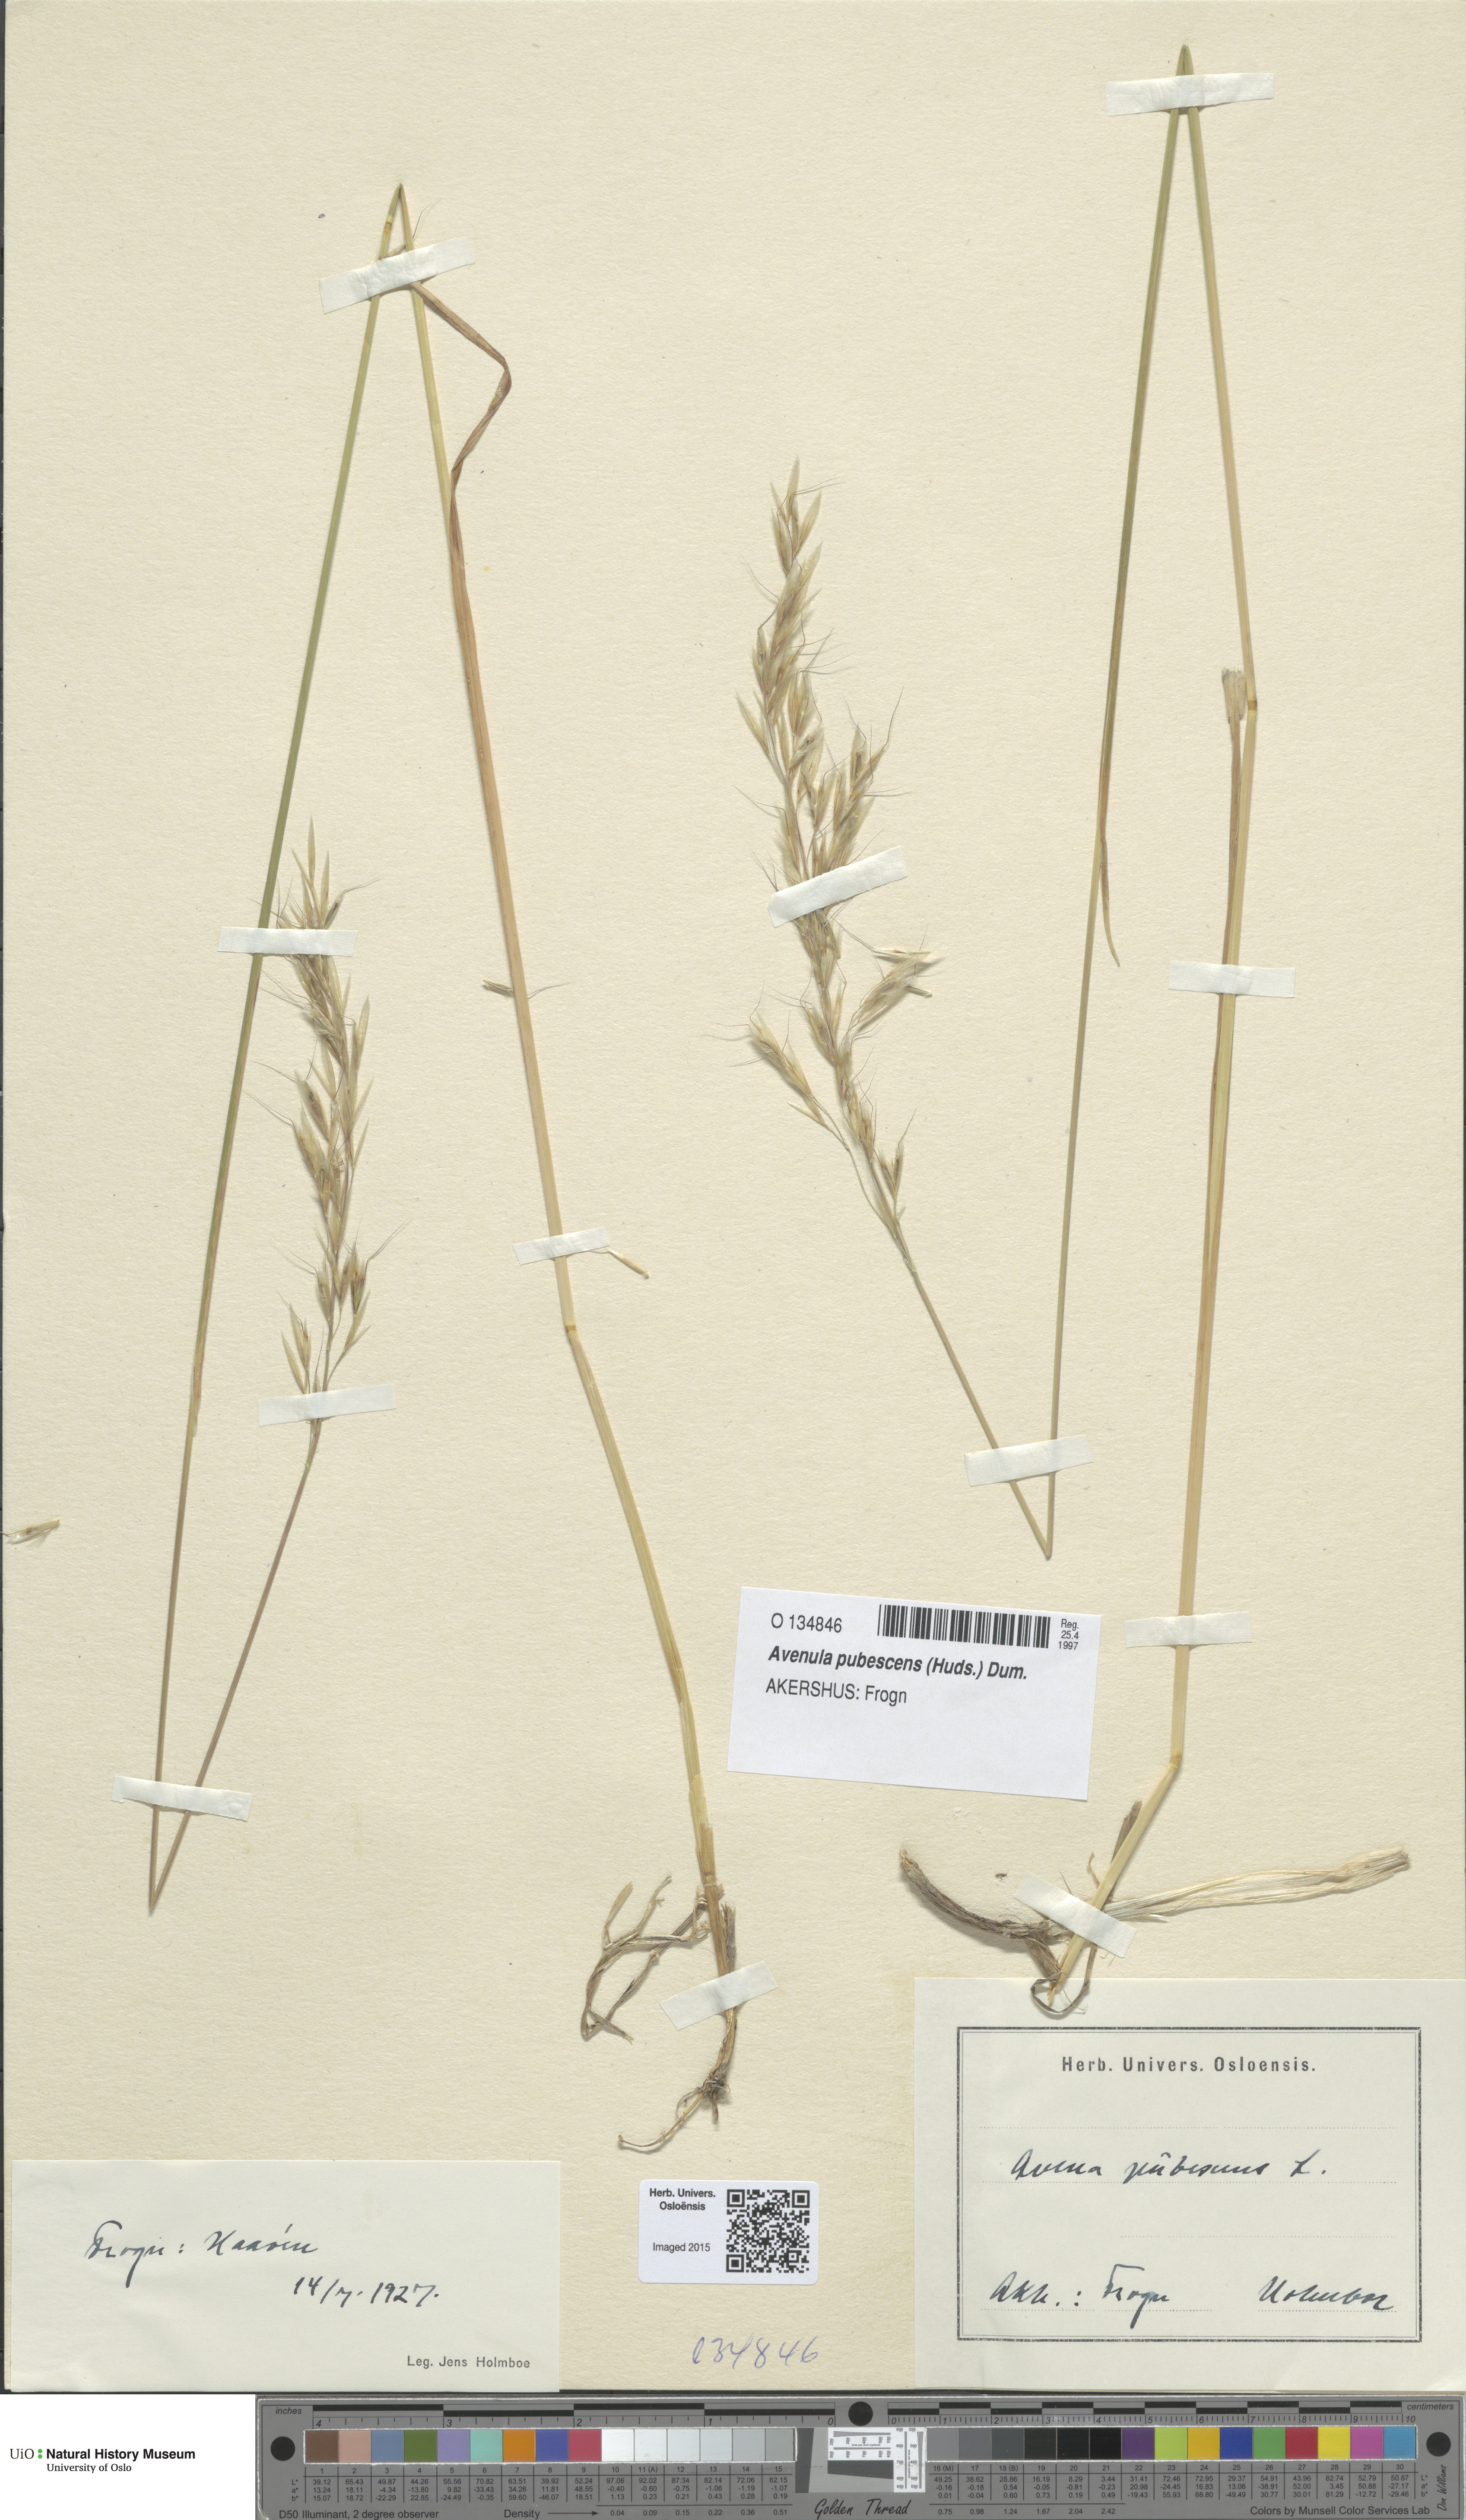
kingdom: Plantae
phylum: Tracheophyta
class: Liliopsida
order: Poales
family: Poaceae
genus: Avenula
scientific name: Avenula pubescens
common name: Downy alpine oatgrass
